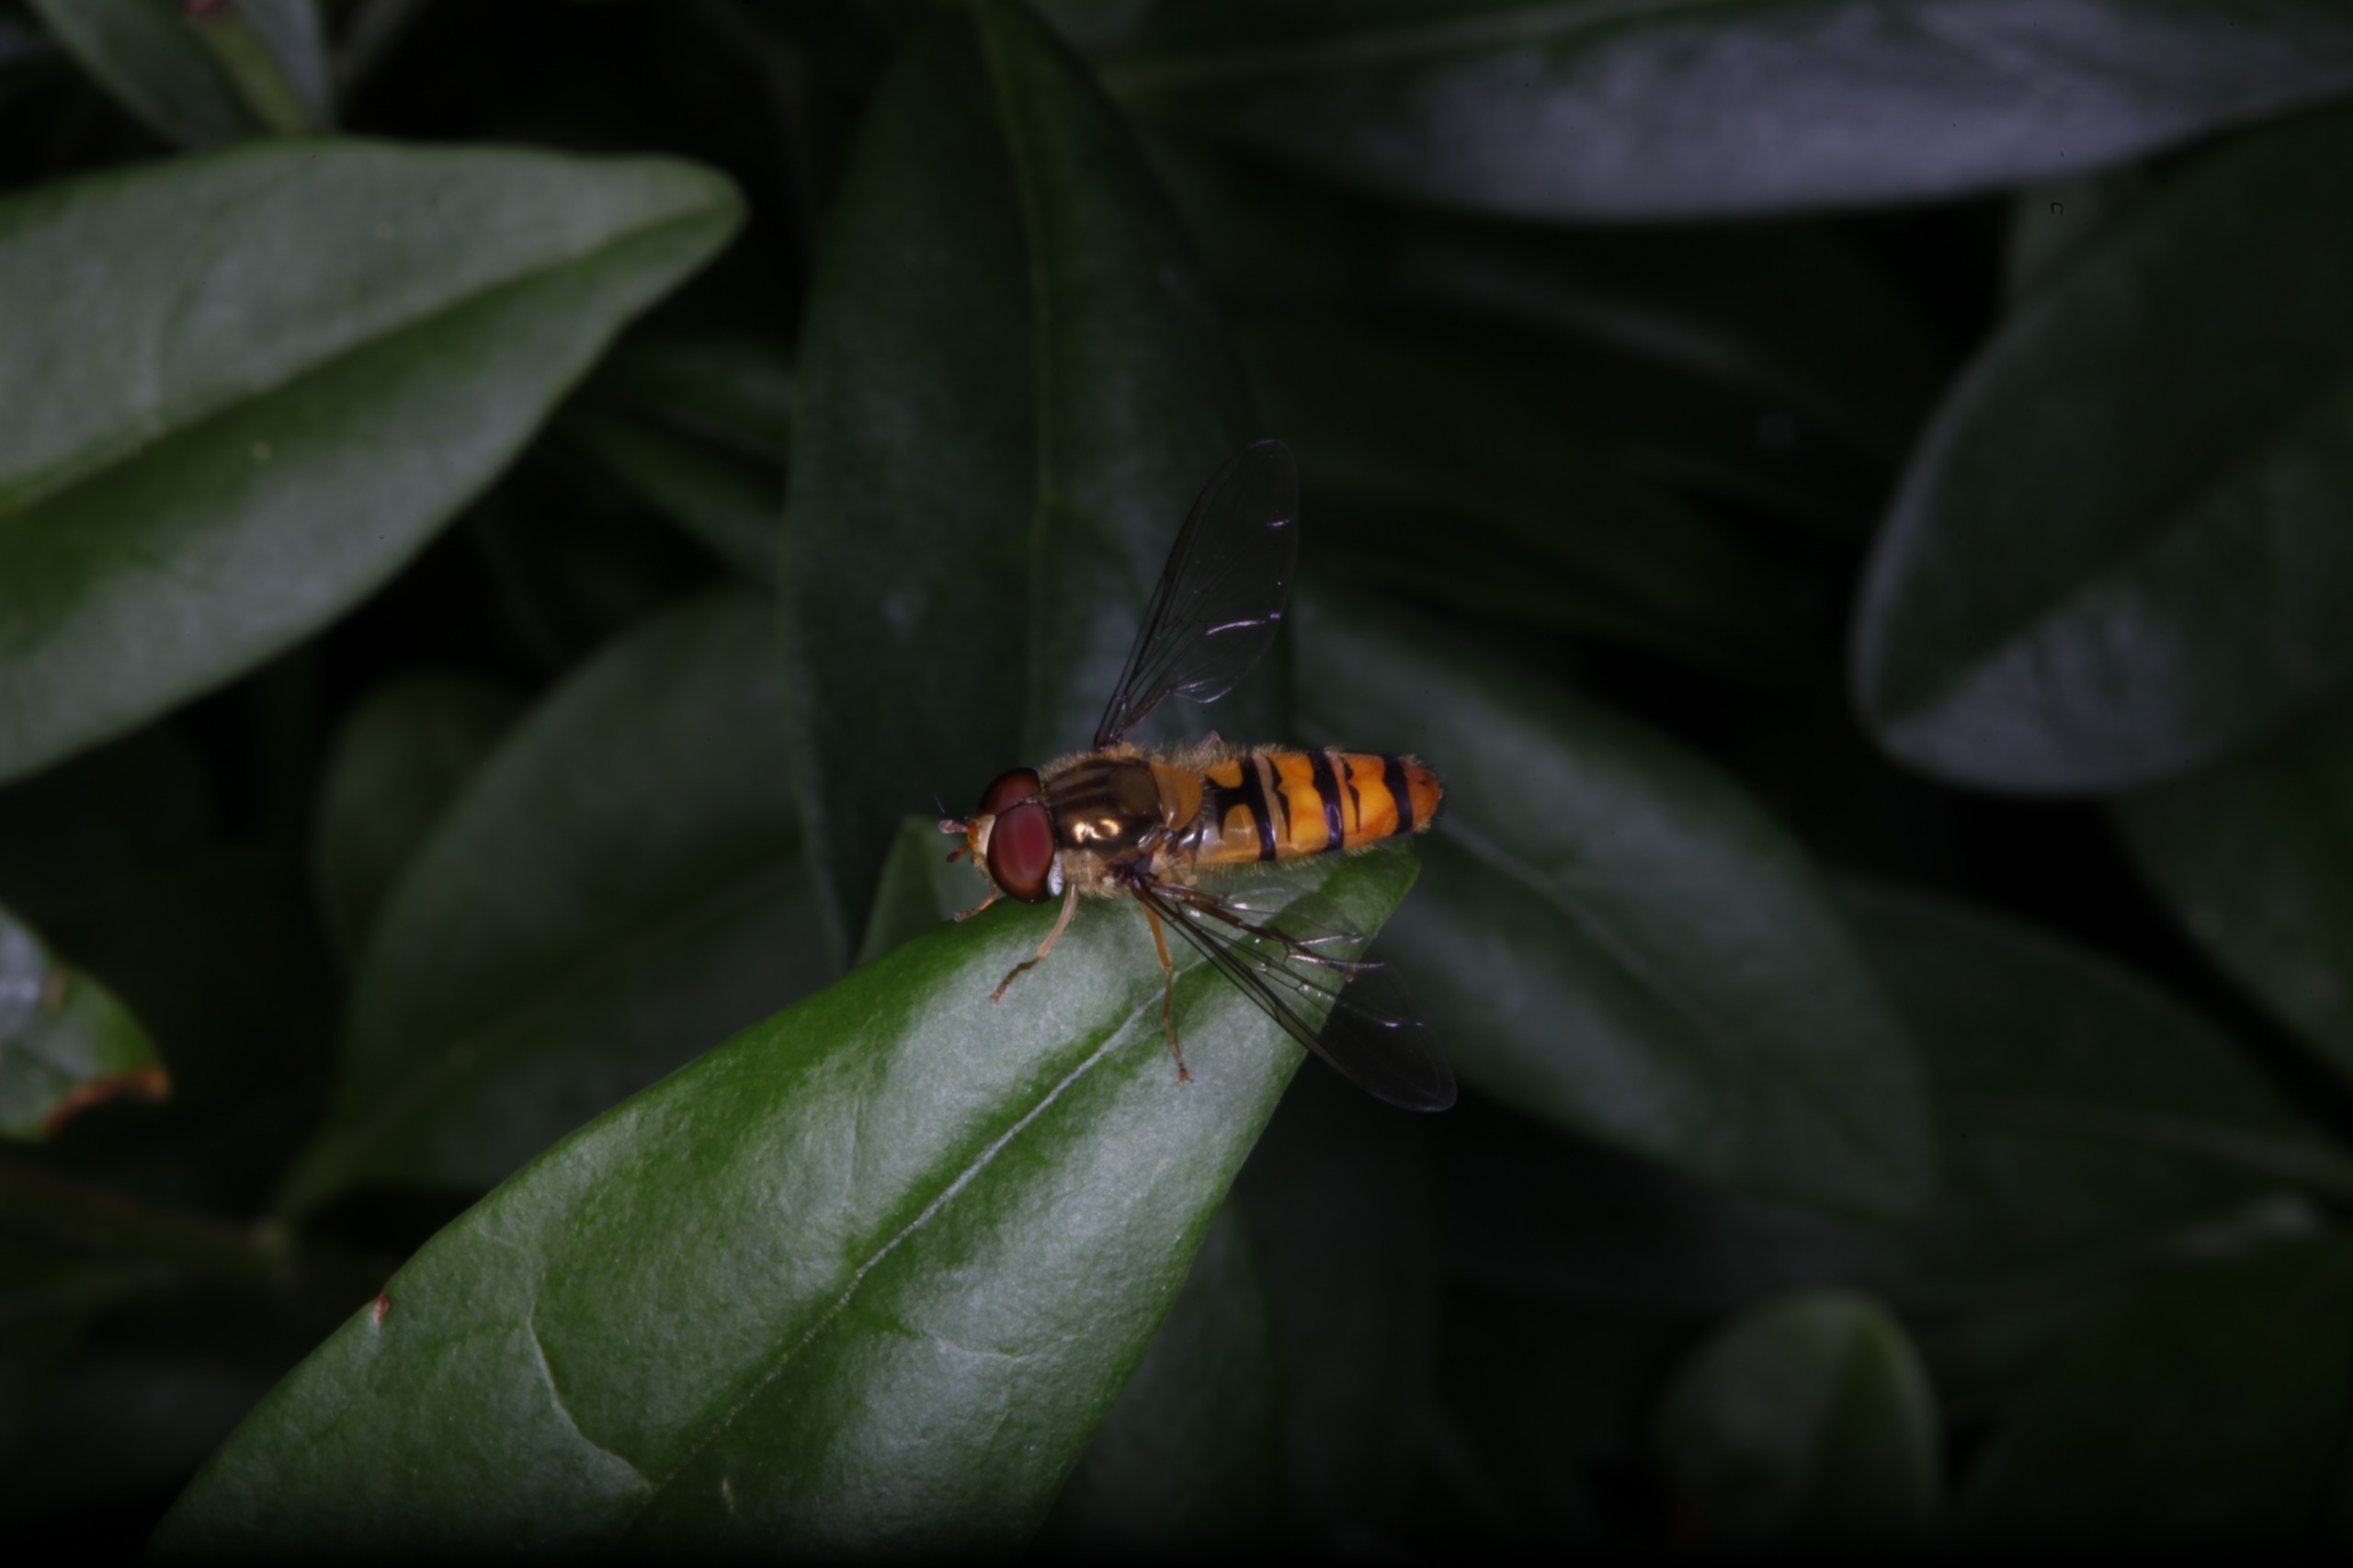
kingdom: Animalia
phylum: Arthropoda
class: Insecta
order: Diptera
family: Syrphidae
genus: Episyrphus
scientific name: Episyrphus balteatus
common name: Dobbeltbåndet svirreflue
